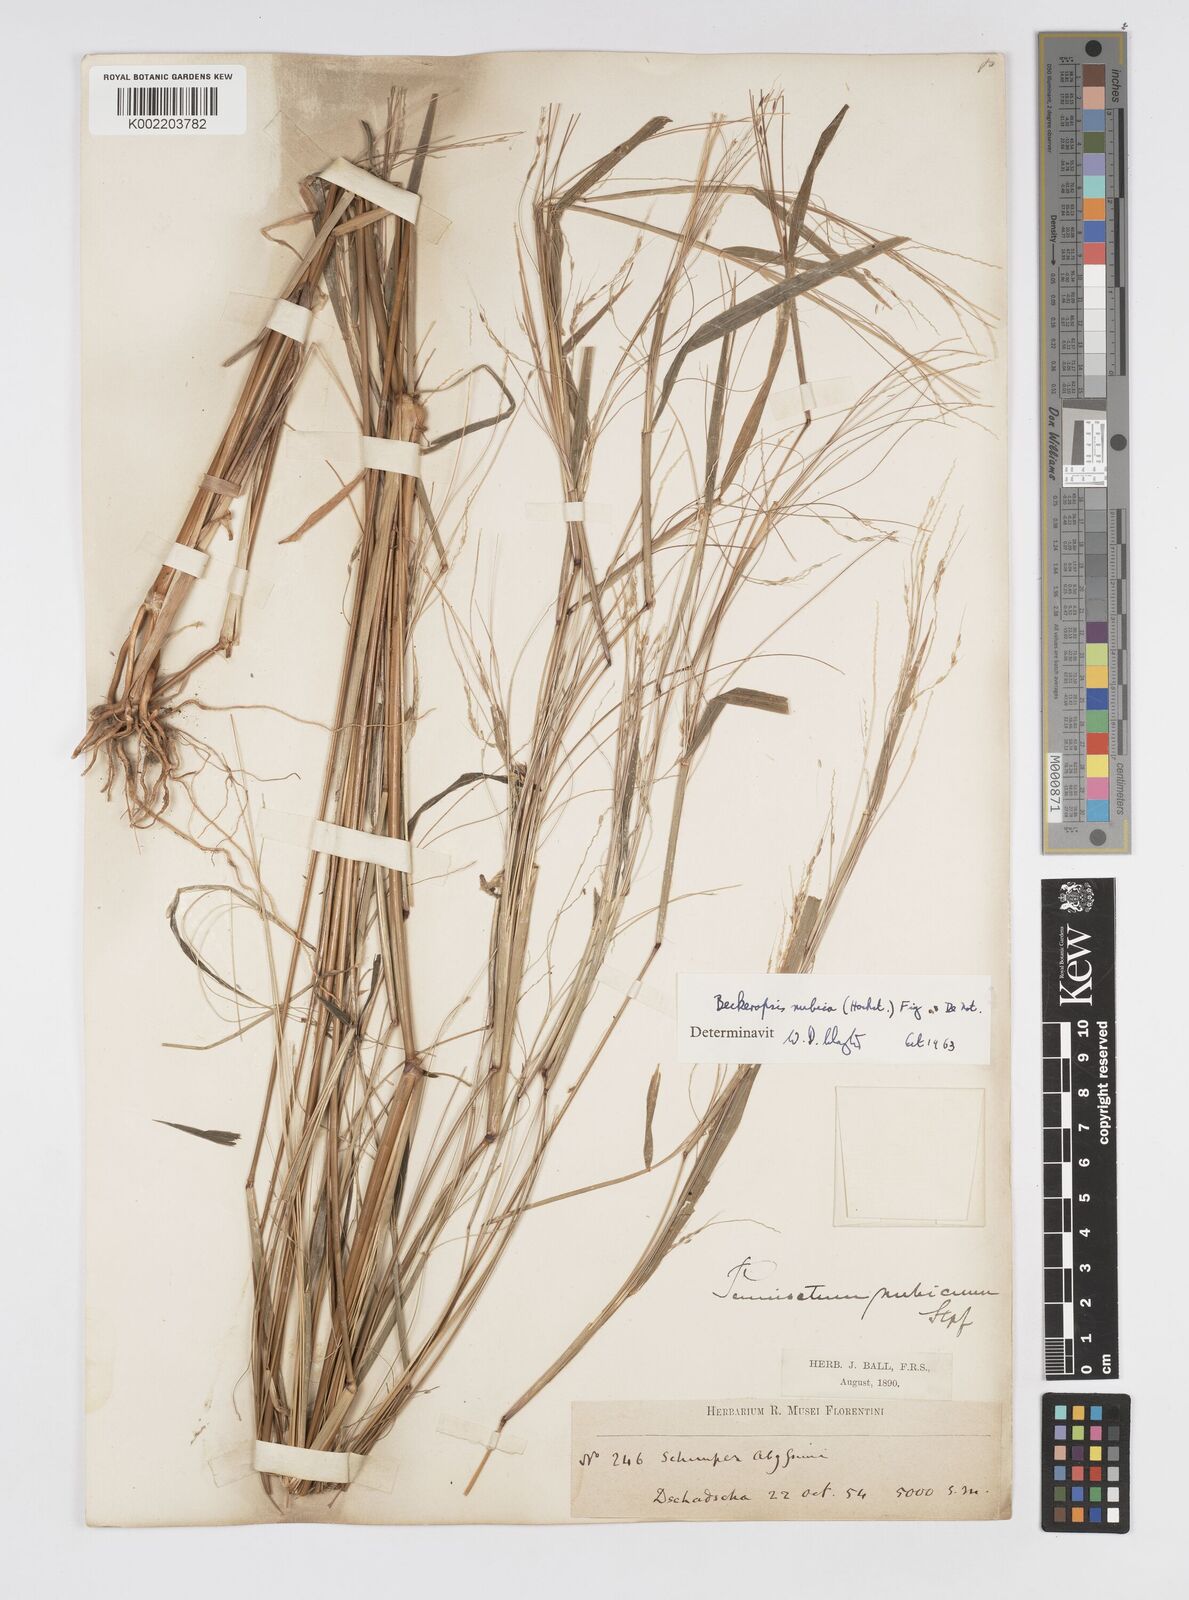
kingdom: Plantae
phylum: Tracheophyta
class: Liliopsida
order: Poales
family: Poaceae
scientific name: Poaceae
